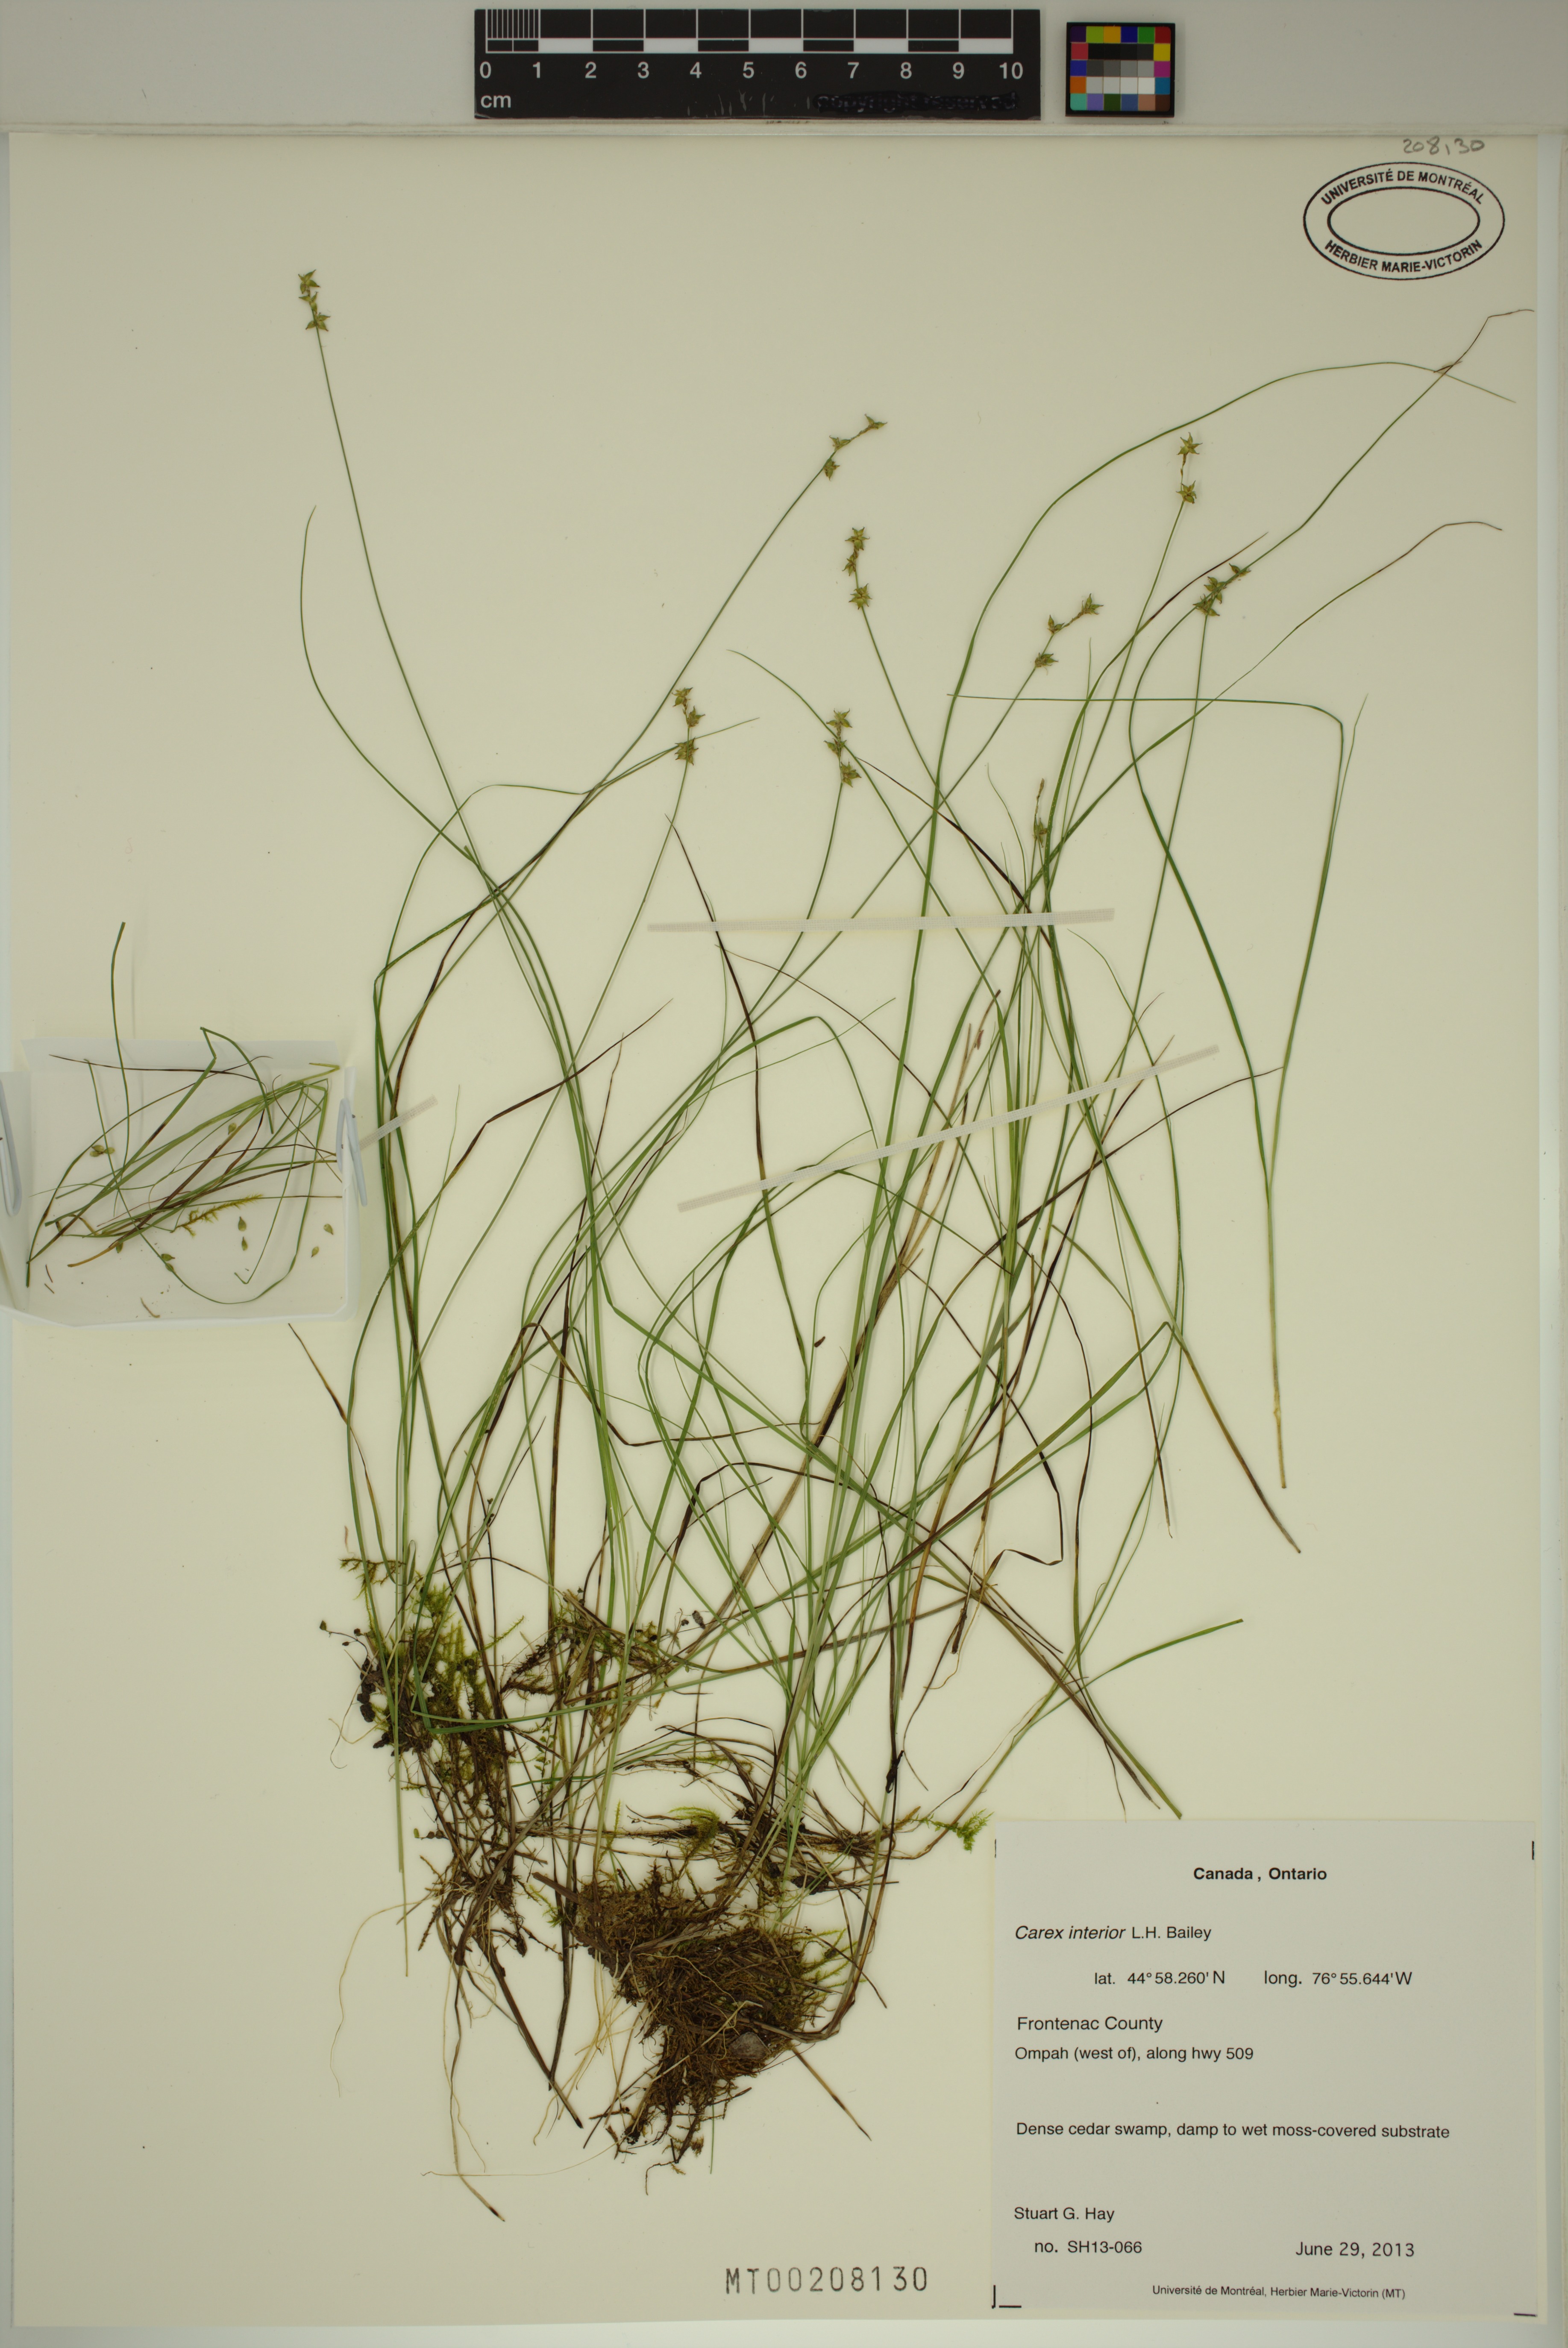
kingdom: Plantae
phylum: Tracheophyta
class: Liliopsida
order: Poales
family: Cyperaceae
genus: Carex
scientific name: Carex interior
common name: Inland sedge
